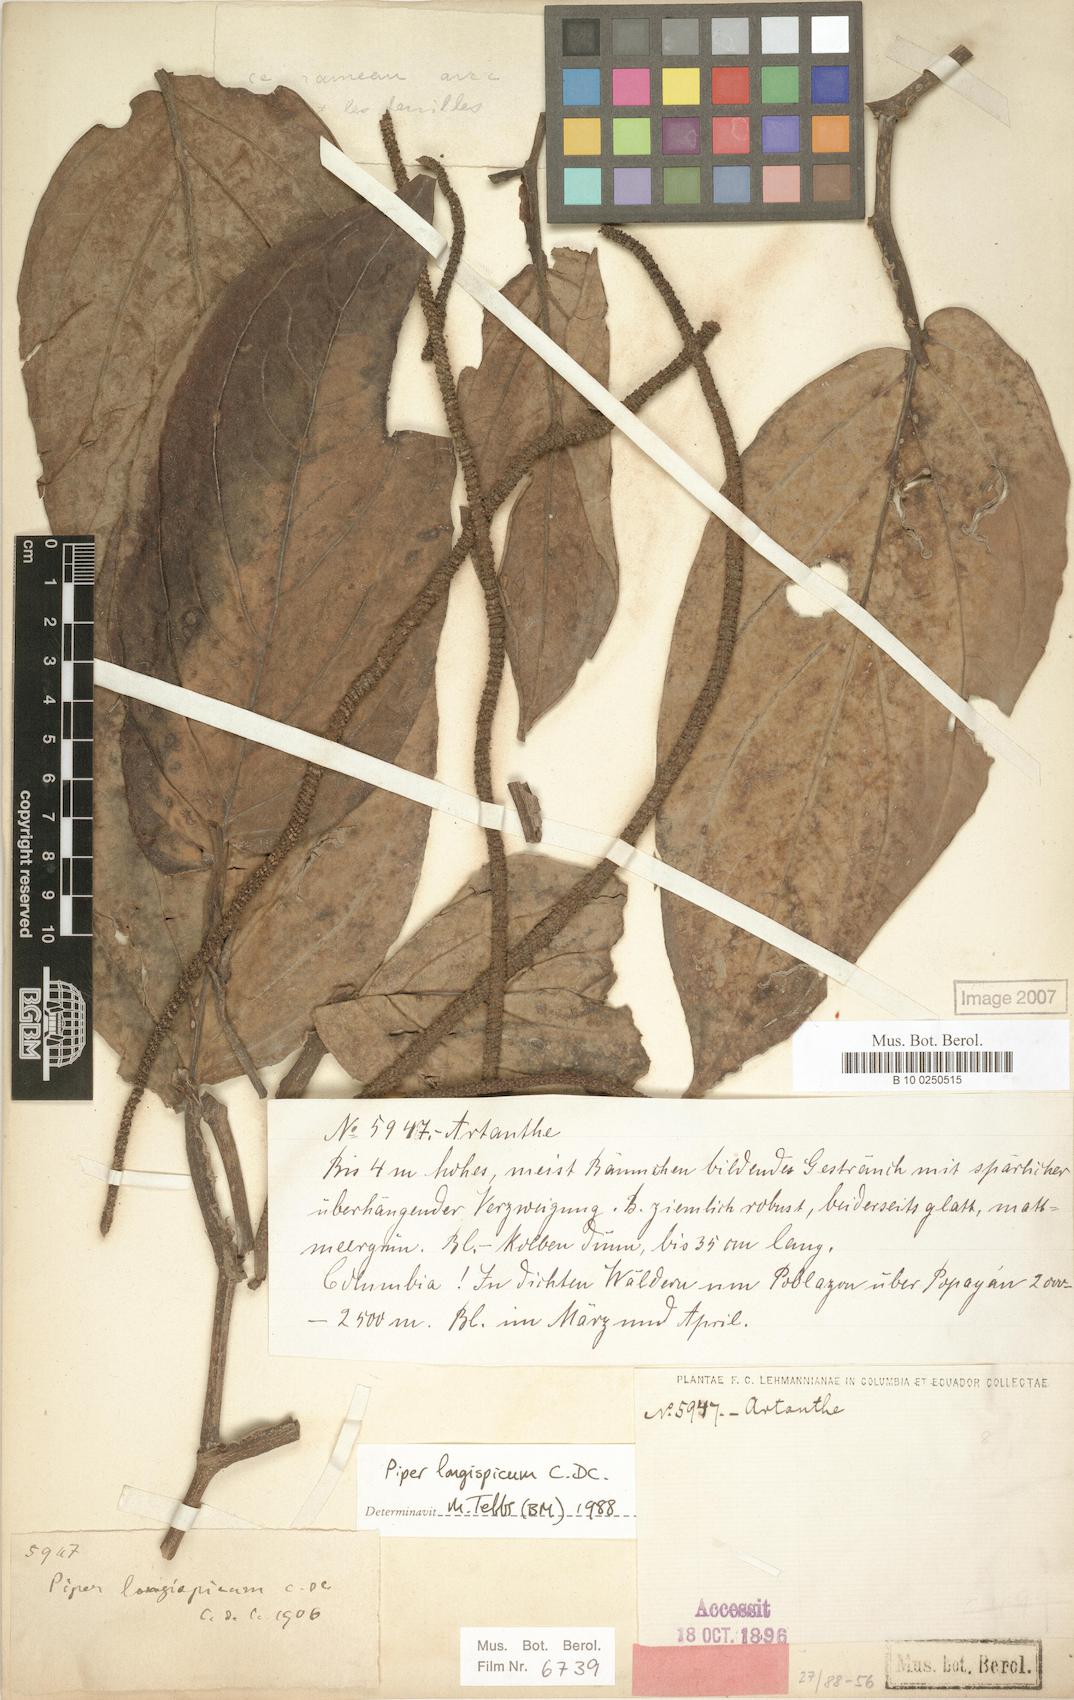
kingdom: Plantae
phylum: Tracheophyta
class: Magnoliopsida
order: Piperales
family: Piperaceae
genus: Piper
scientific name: Piper longispicum
